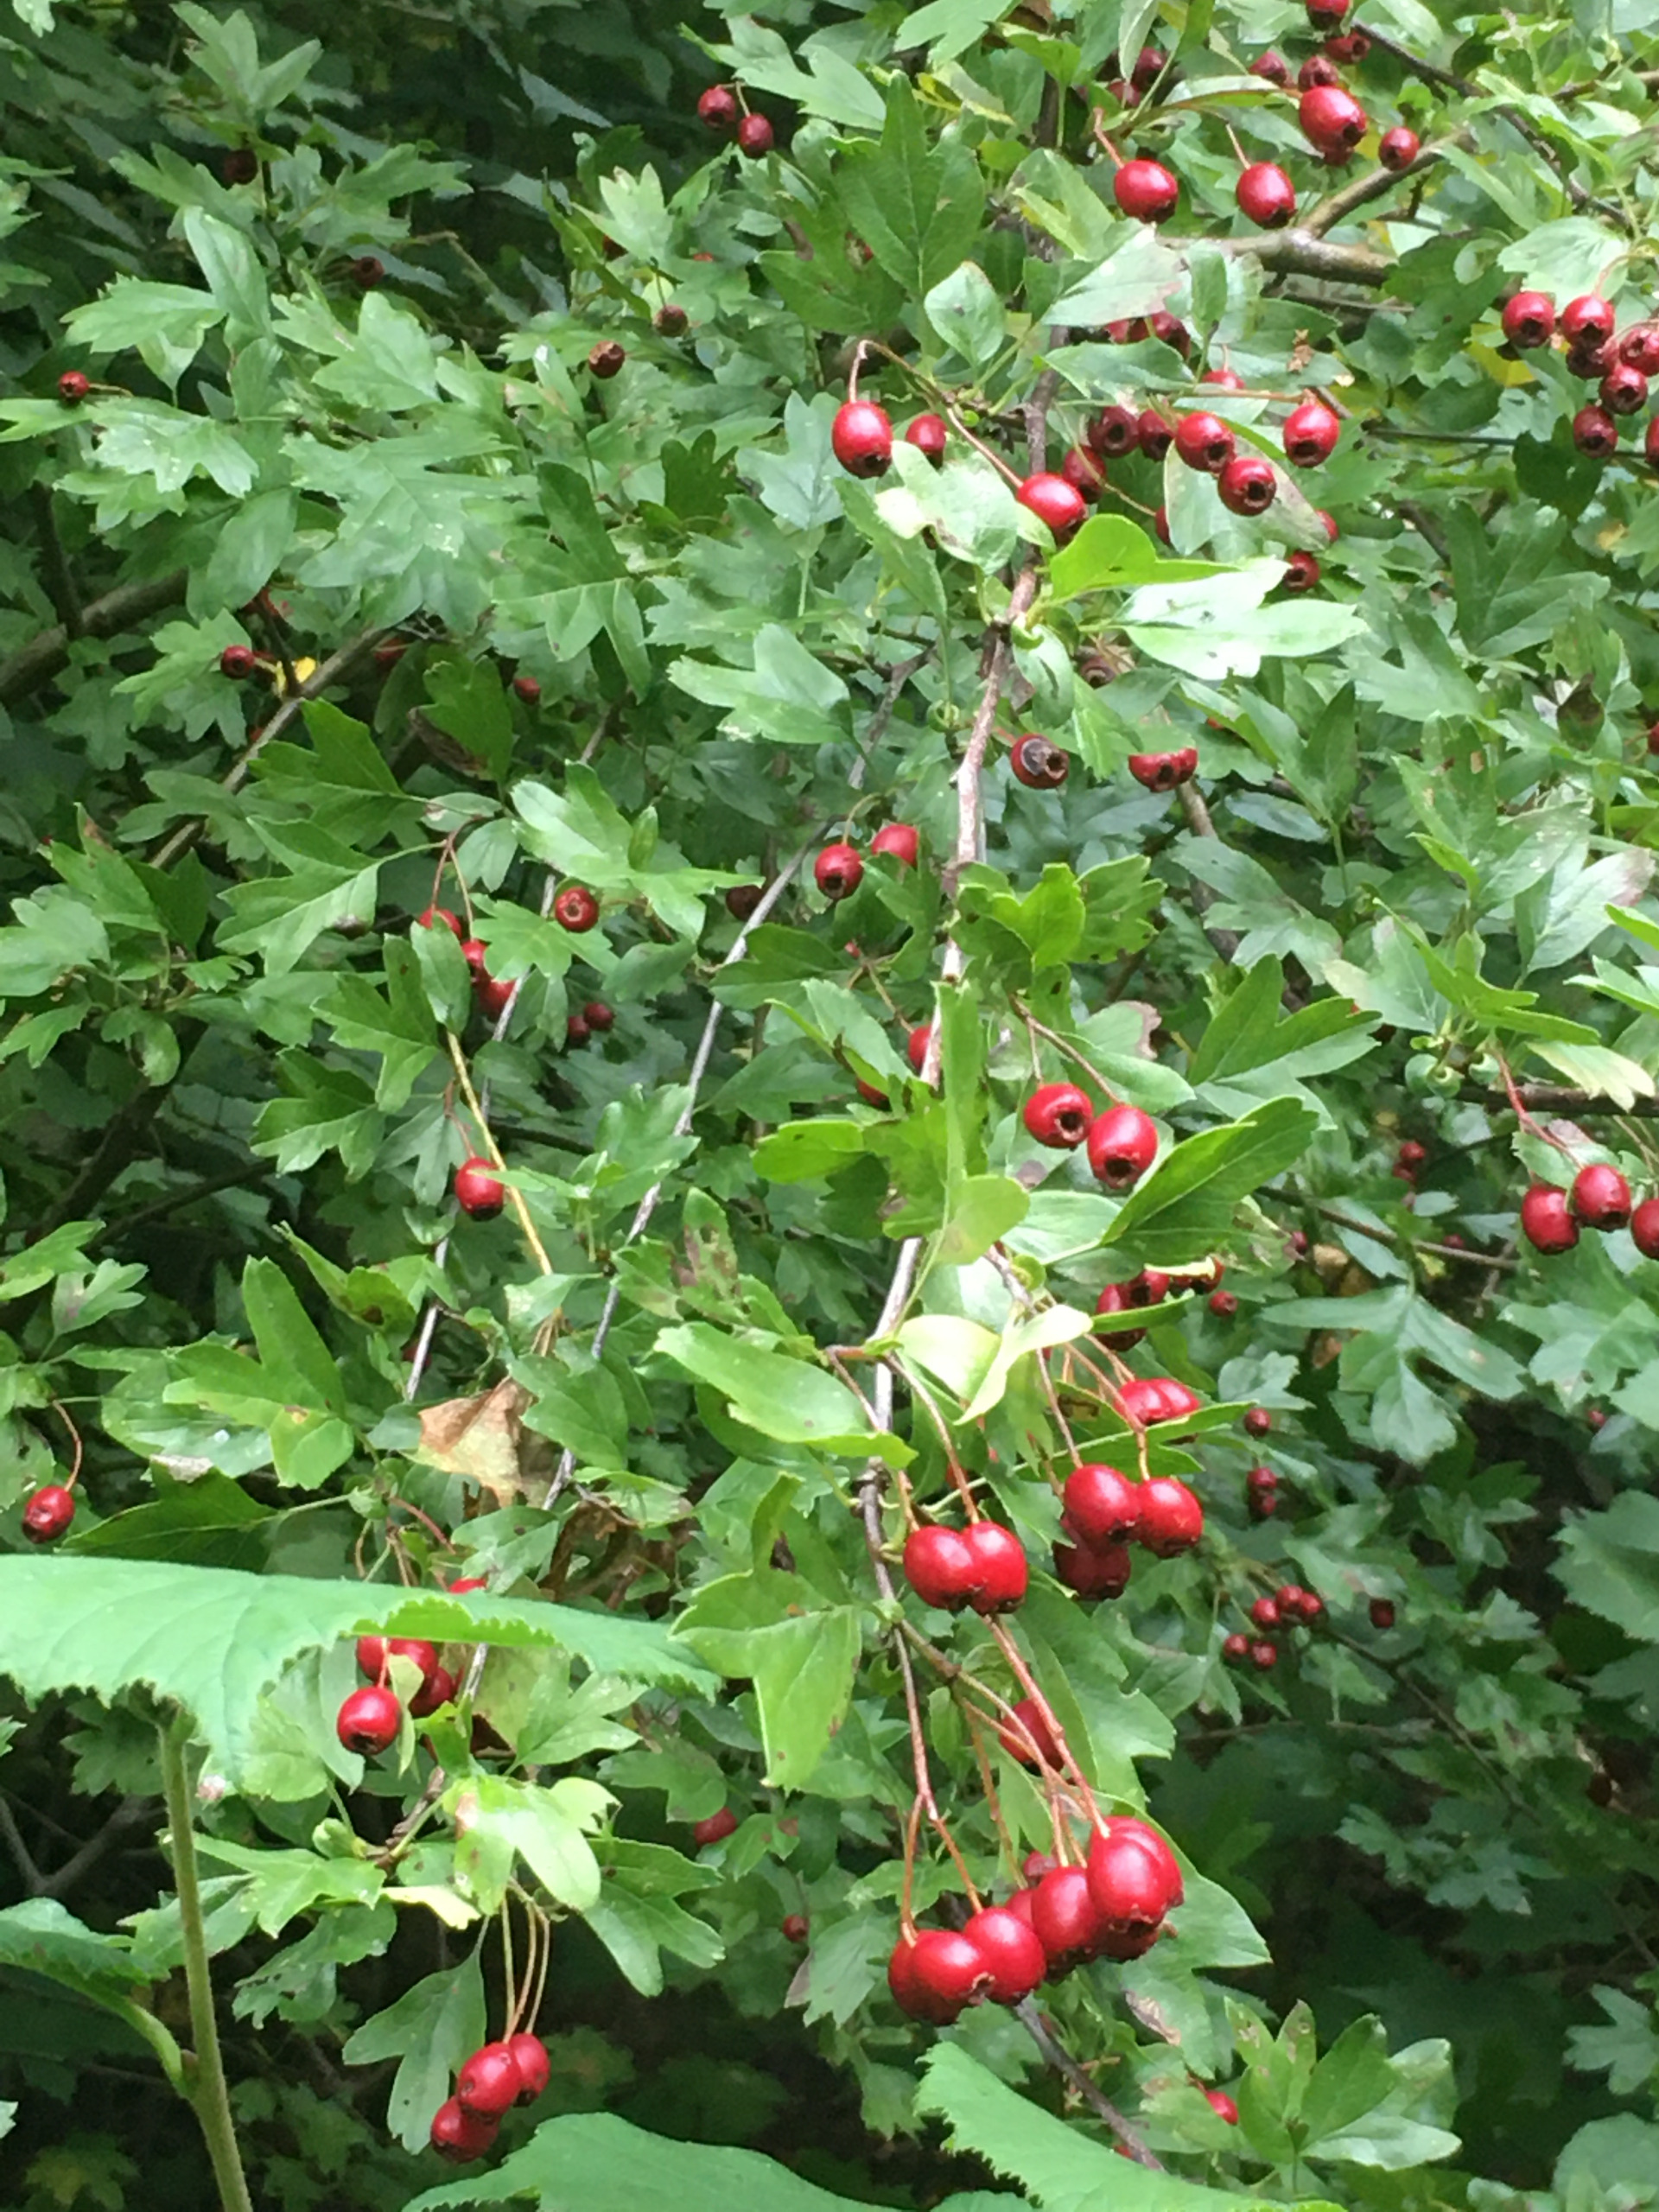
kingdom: Plantae
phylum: Tracheophyta
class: Magnoliopsida
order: Rosales
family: Rosaceae
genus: Crataegus
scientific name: Crataegus monogyna
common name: Engriflet hvidtjørn
